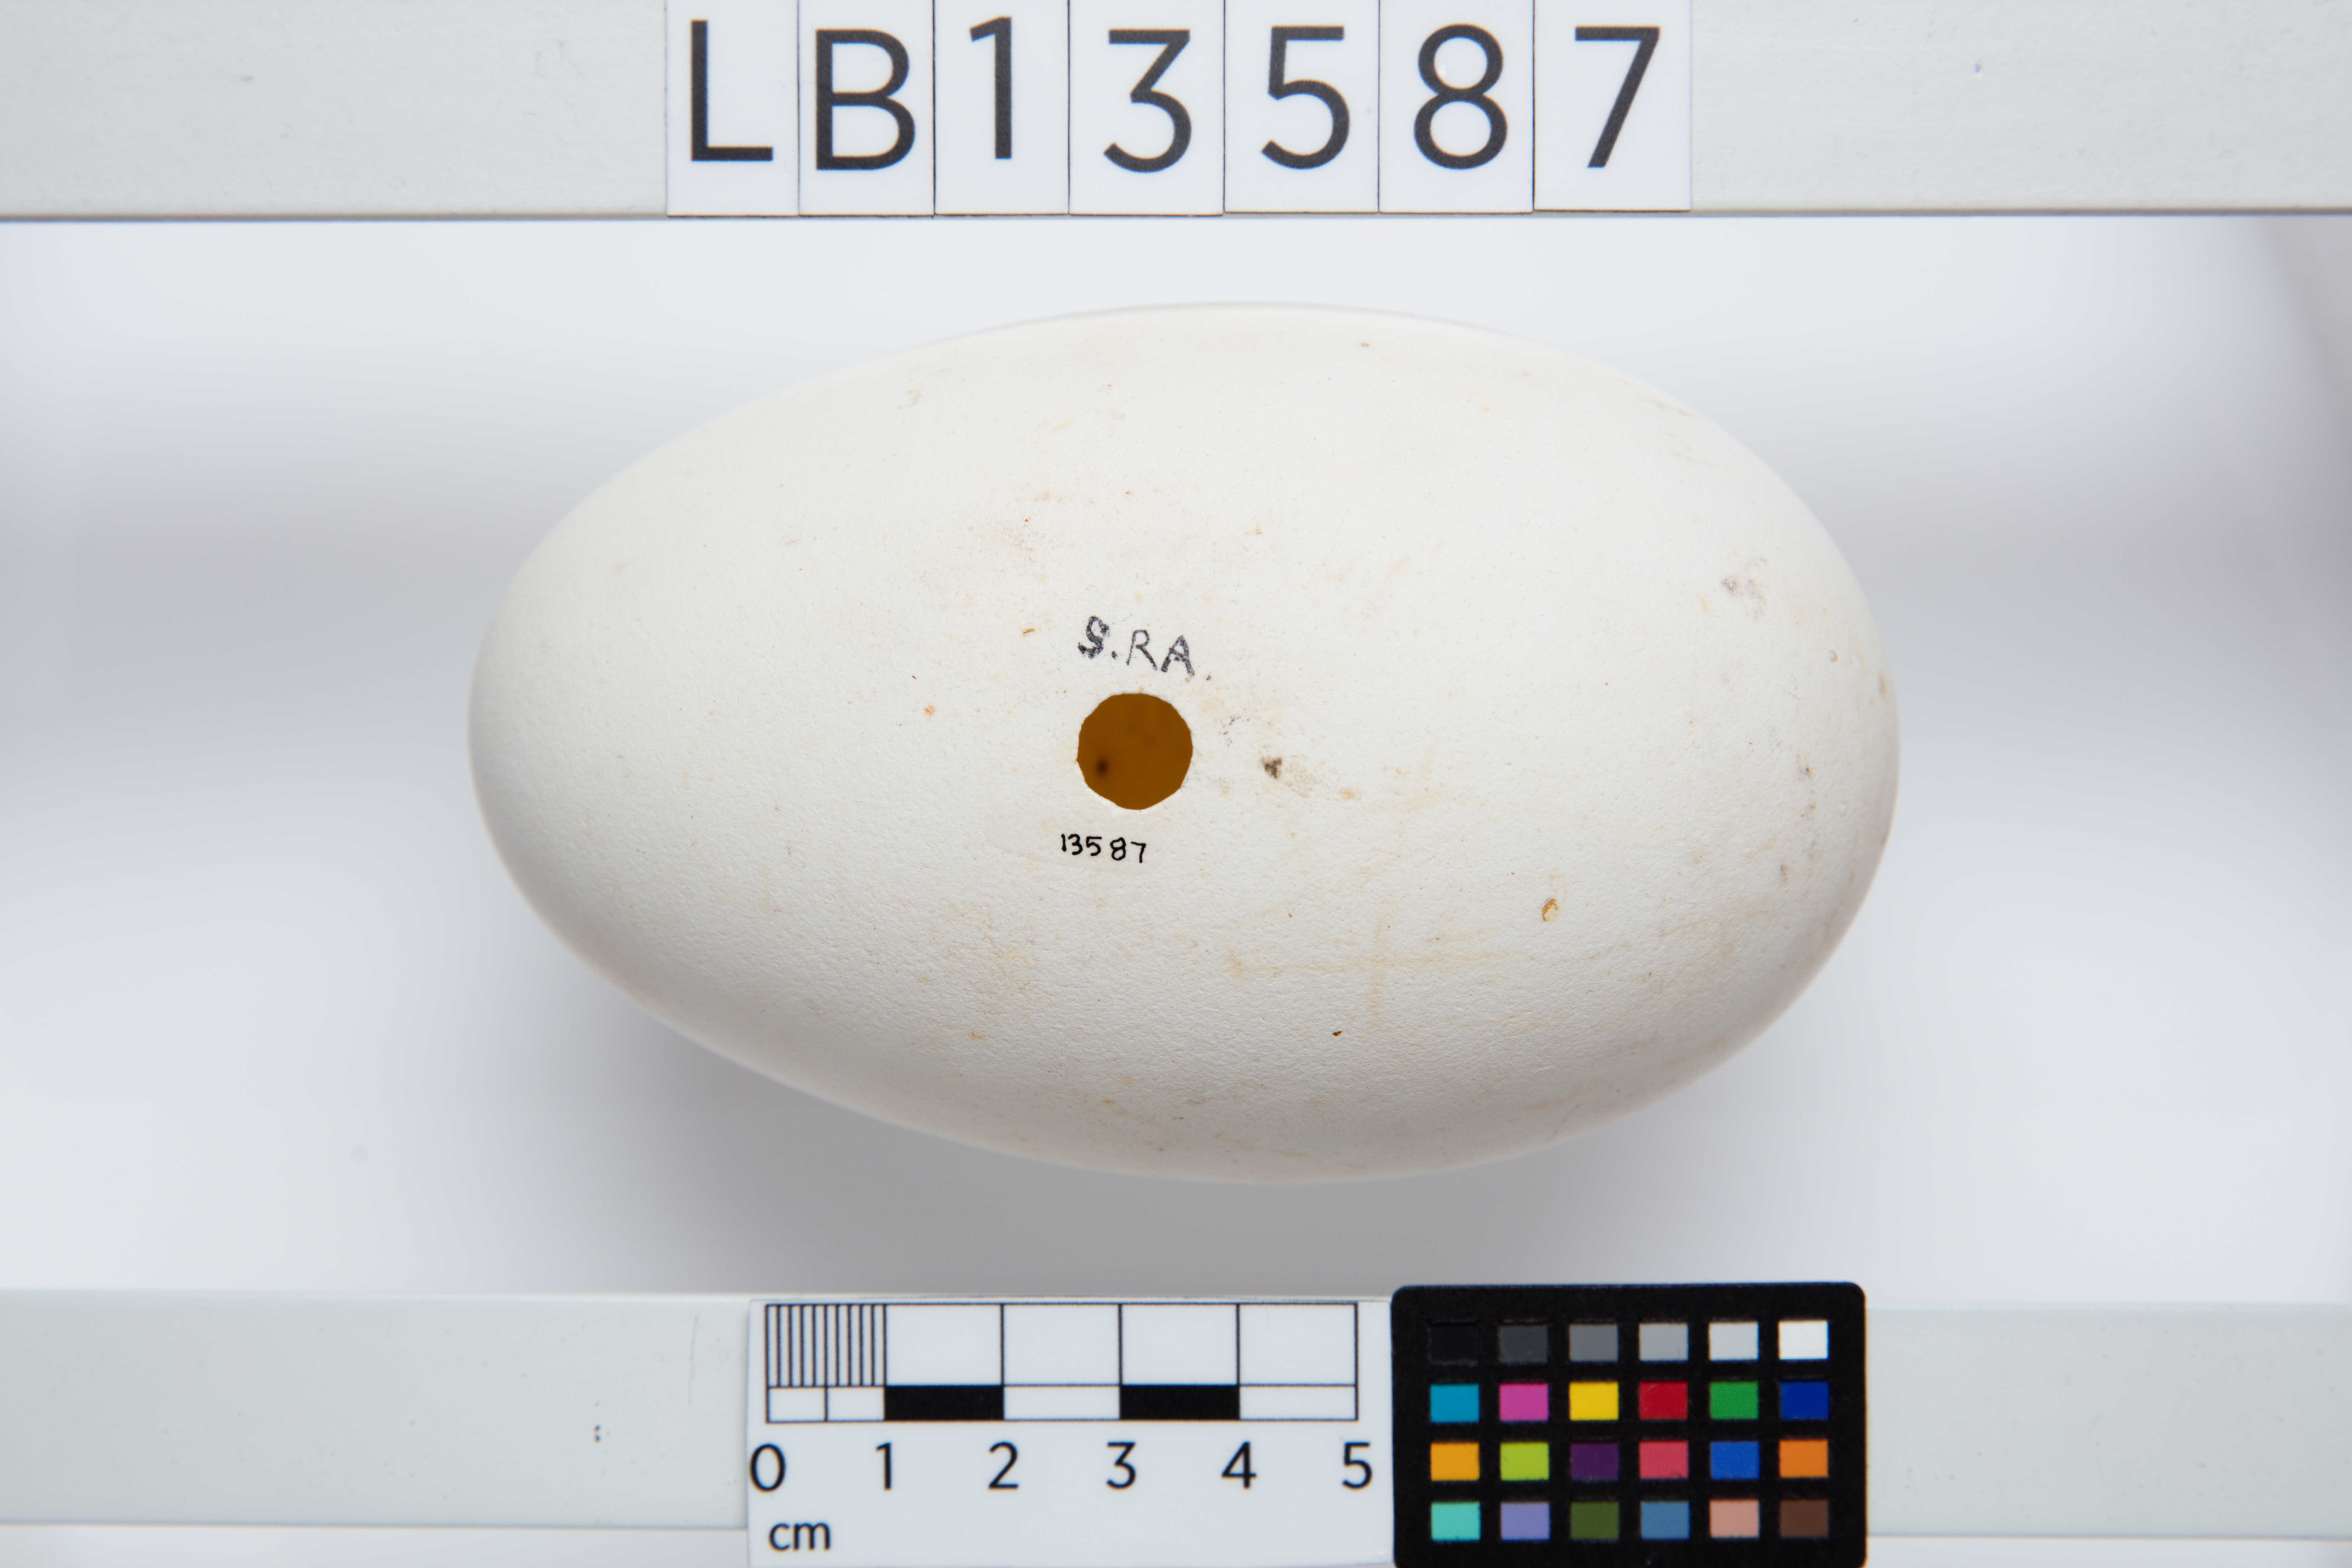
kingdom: Animalia
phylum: Chordata
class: Aves
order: Procellariiformes
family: Diomedeidae
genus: Diomedea
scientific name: Diomedea epomophora
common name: Southern royal albatross
